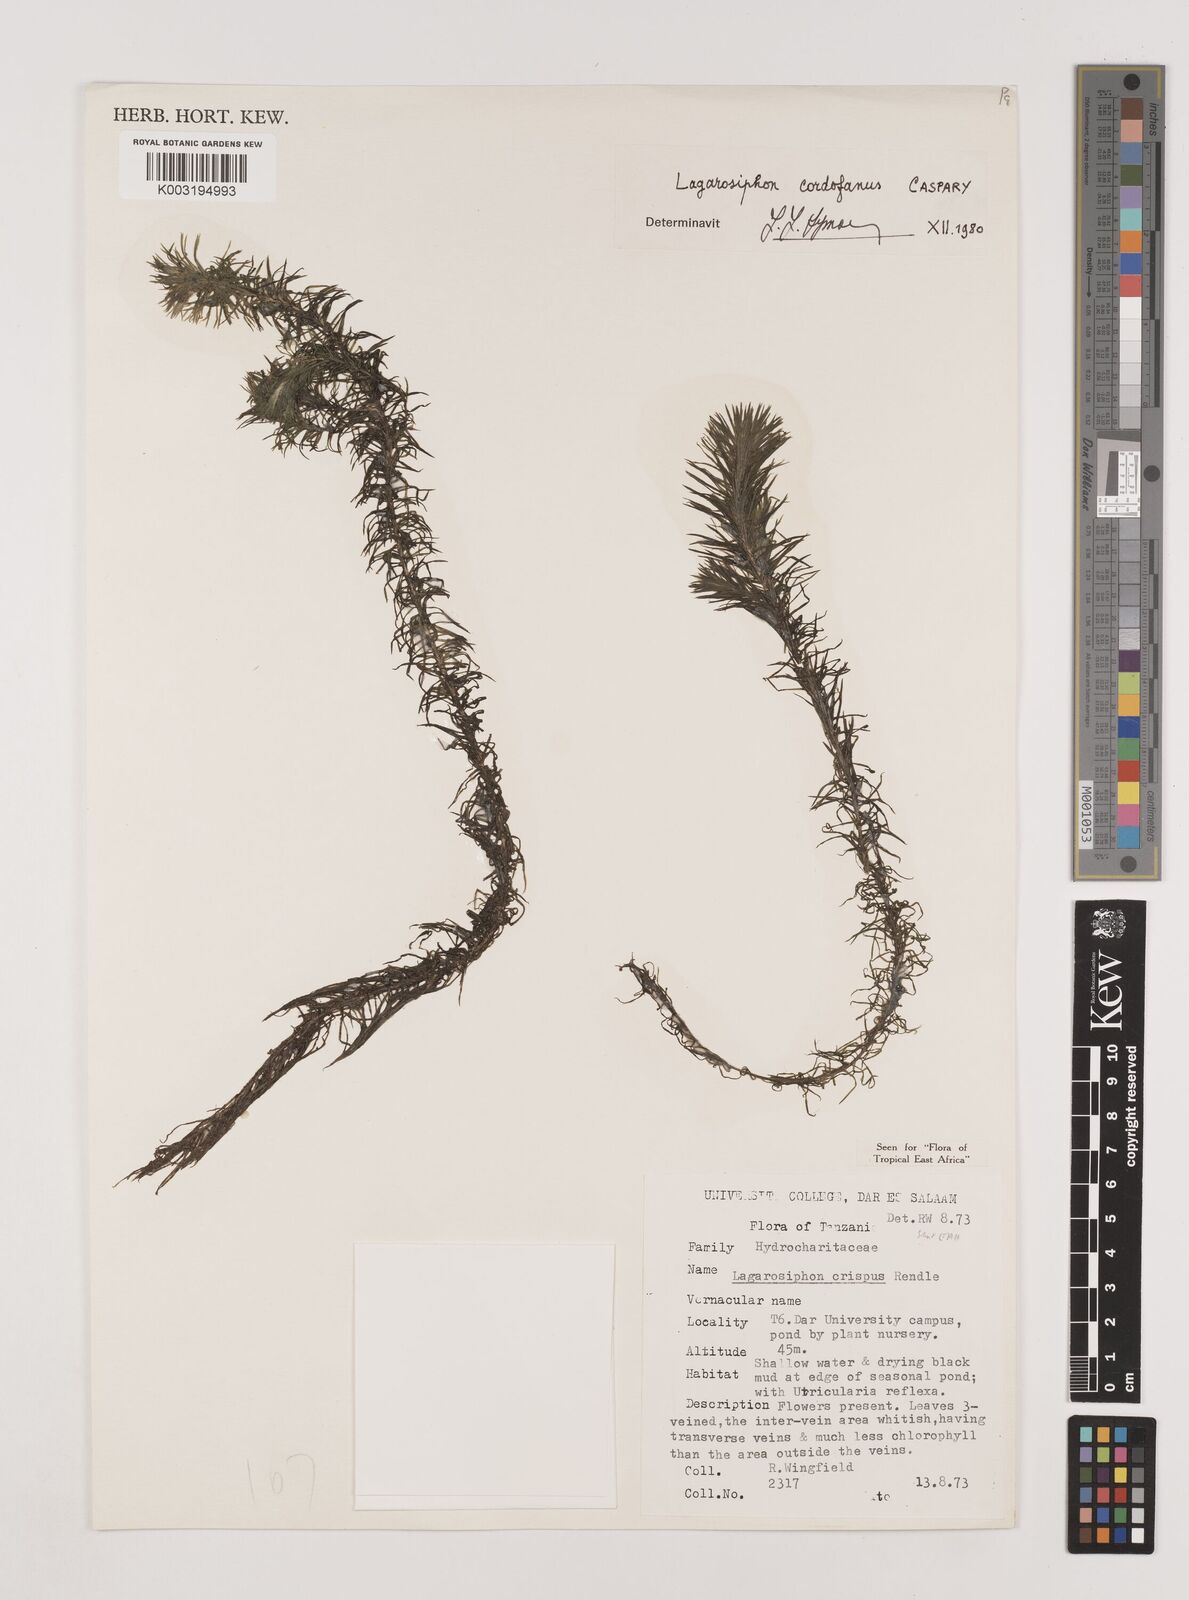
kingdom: Plantae
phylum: Tracheophyta
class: Liliopsida
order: Alismatales
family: Hydrocharitaceae
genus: Lagarosiphon
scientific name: Lagarosiphon cordofanus
